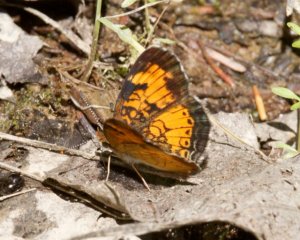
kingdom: Animalia
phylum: Arthropoda
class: Insecta
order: Lepidoptera
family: Nymphalidae
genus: Phyciodes
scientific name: Phyciodes tharos
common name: Northern Crescent
